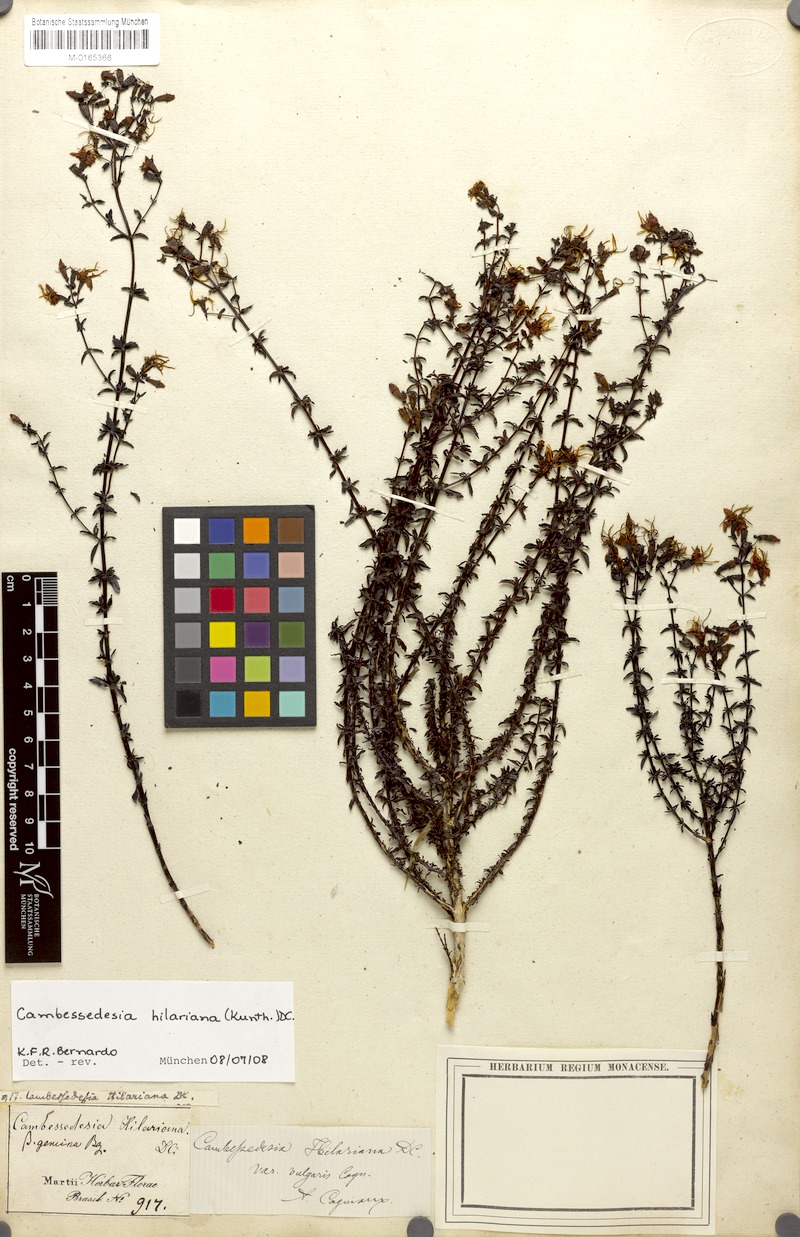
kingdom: Plantae
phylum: Tracheophyta
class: Magnoliopsida
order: Myrtales
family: Melastomataceae
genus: Cambessedesia
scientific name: Cambessedesia hilariana
